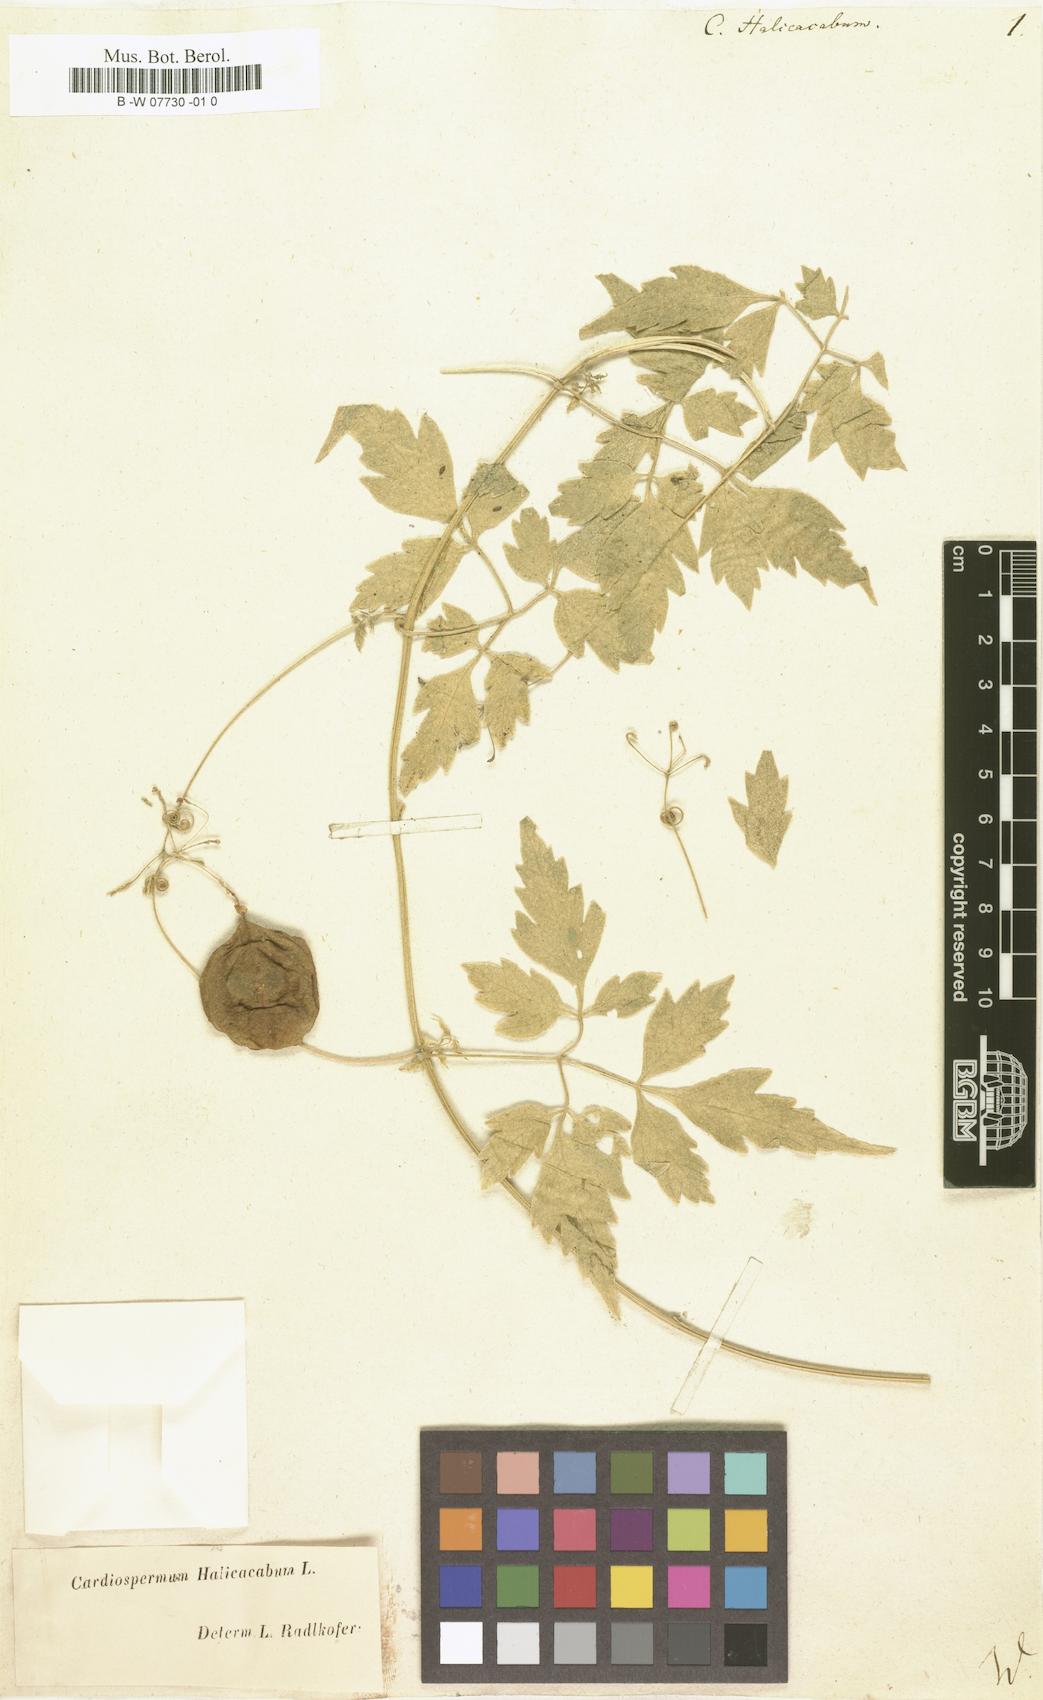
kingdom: Plantae
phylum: Tracheophyta
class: Magnoliopsida
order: Sapindales
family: Sapindaceae
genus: Cardiospermum
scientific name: Cardiospermum halicacabum
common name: Balloon vine
